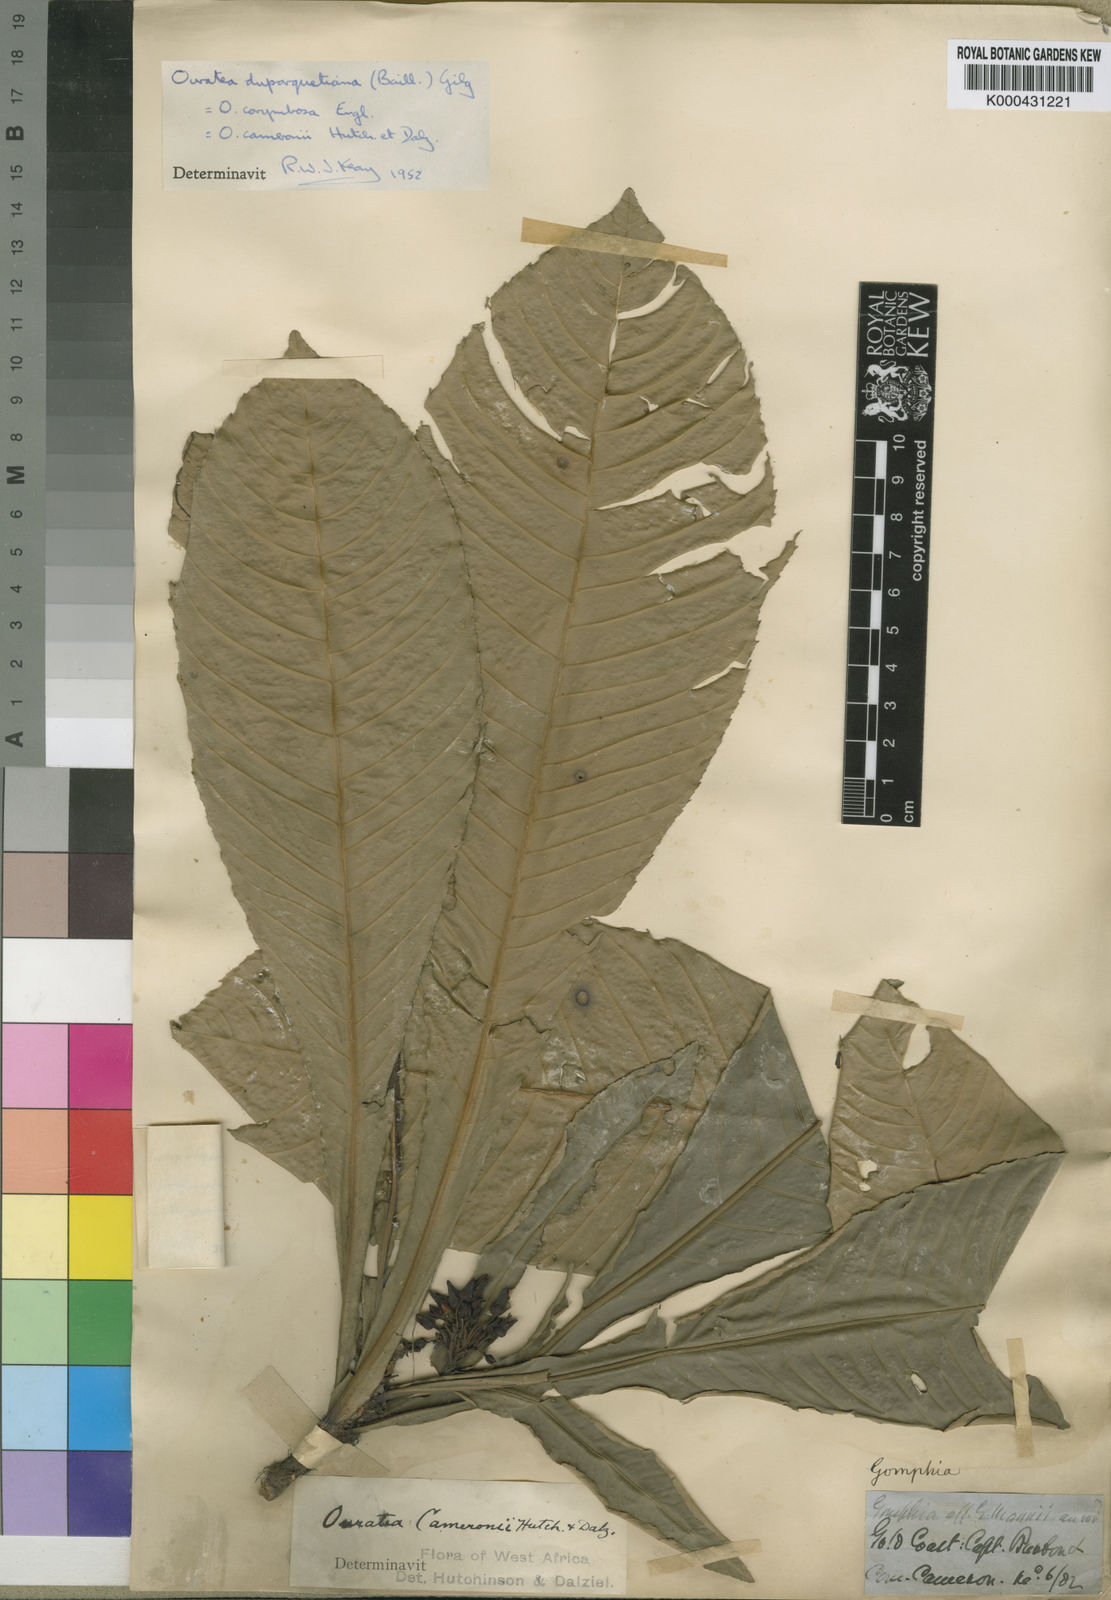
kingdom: Plantae
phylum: Tracheophyta
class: Magnoliopsida
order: Malpighiales
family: Ochnaceae
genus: Campylospermum
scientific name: Campylospermum duparquetianum
